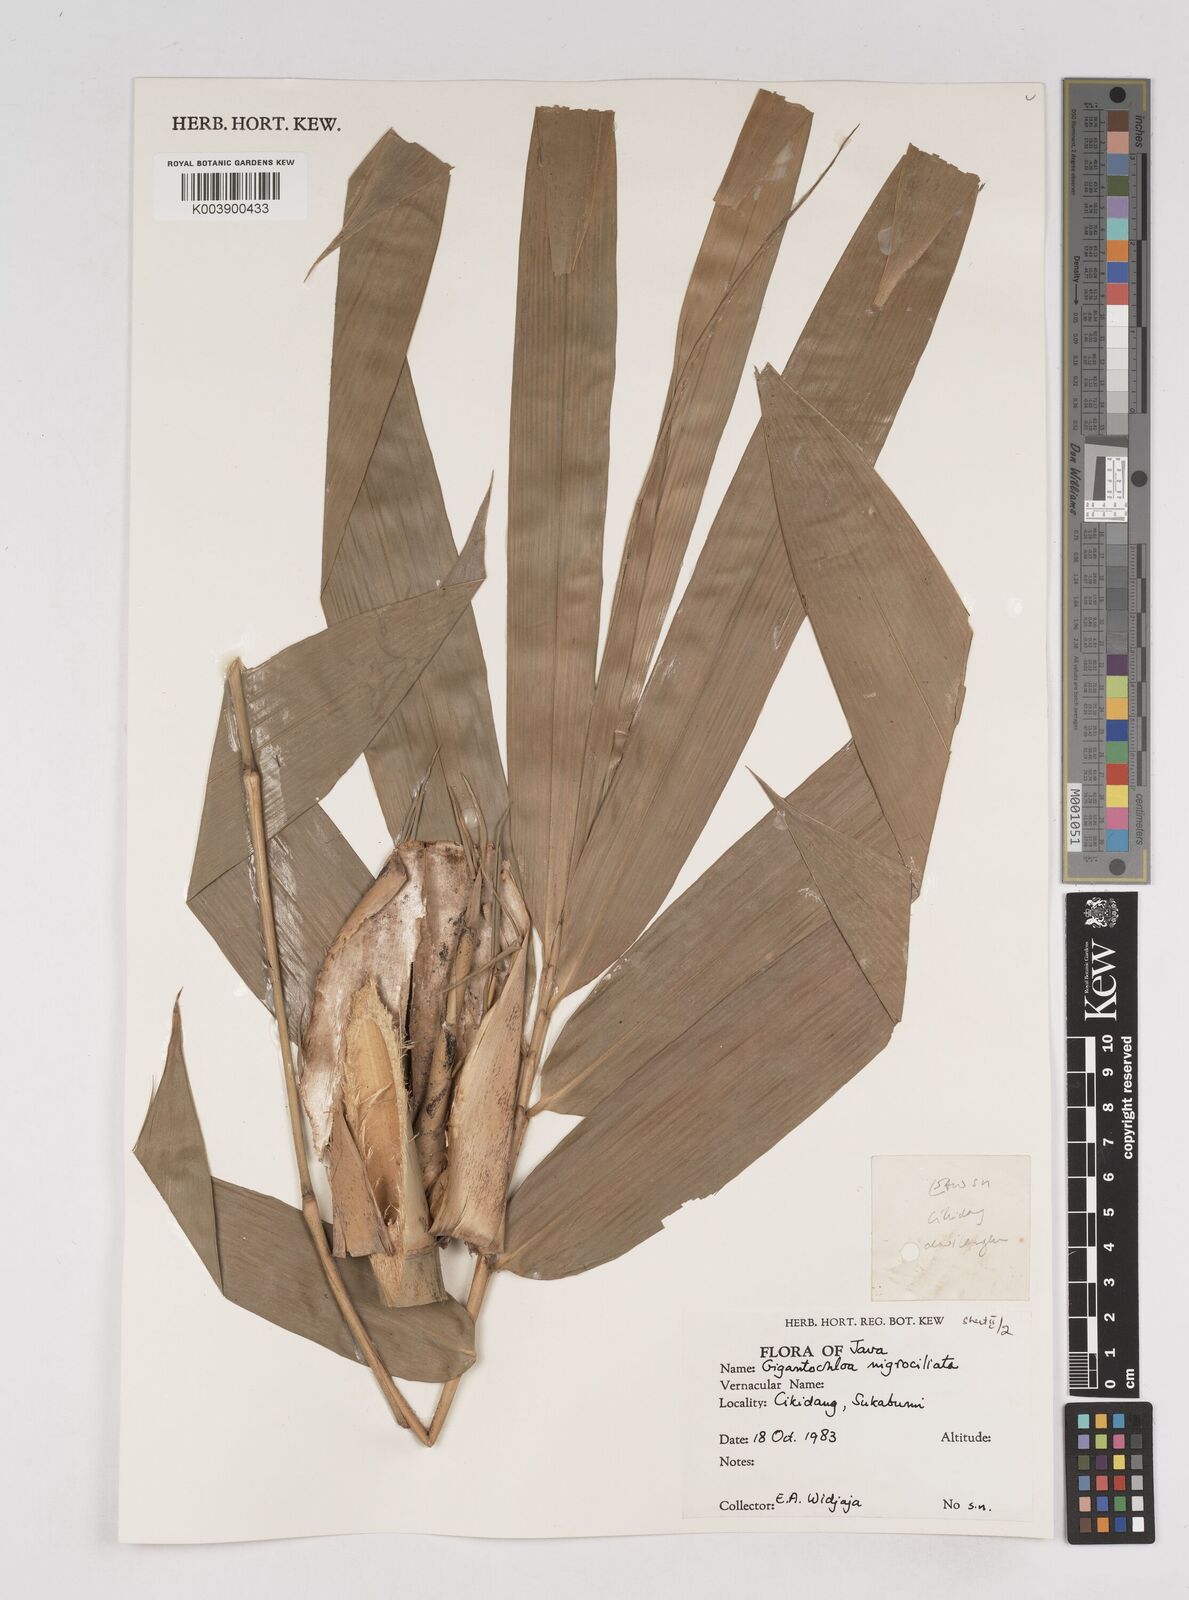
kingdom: Plantae
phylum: Tracheophyta
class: Liliopsida
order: Poales
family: Poaceae
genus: Gigantochloa
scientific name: Gigantochloa nigrociliata
